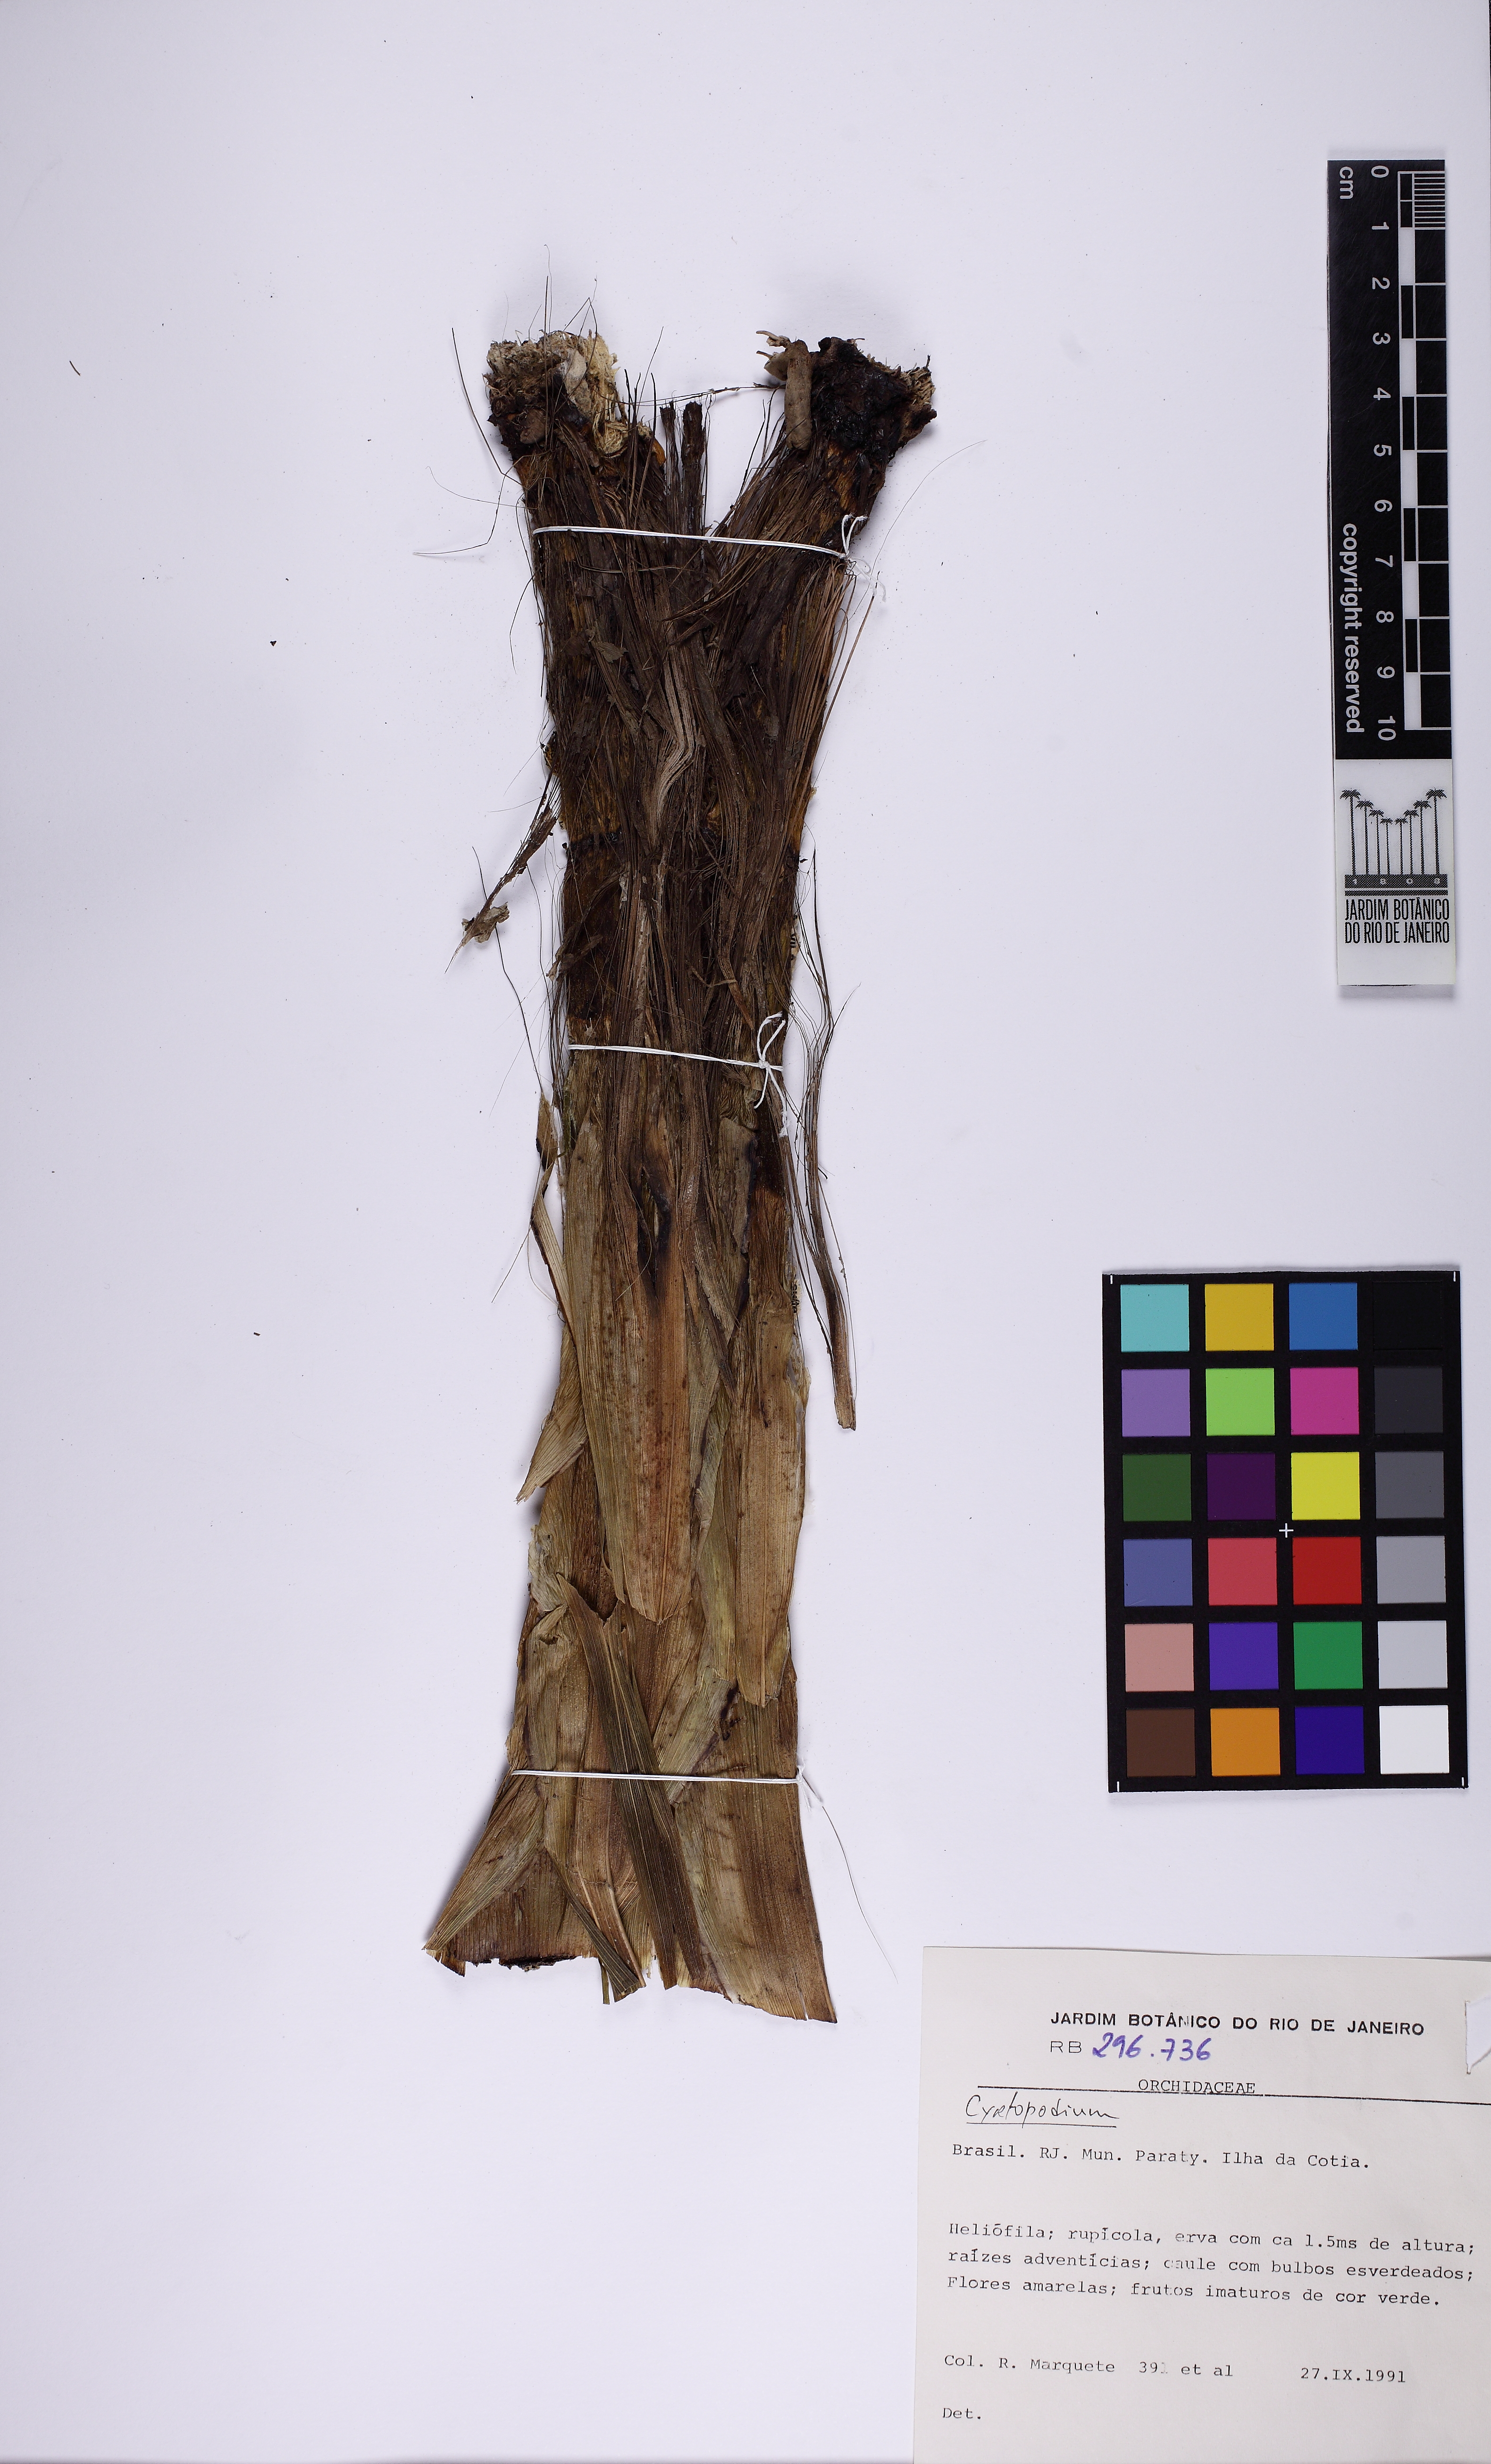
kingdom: Plantae
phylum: Tracheophyta
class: Liliopsida
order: Asparagales
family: Orchidaceae
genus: Cyrtopodium
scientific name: Cyrtopodium glutiniferum
